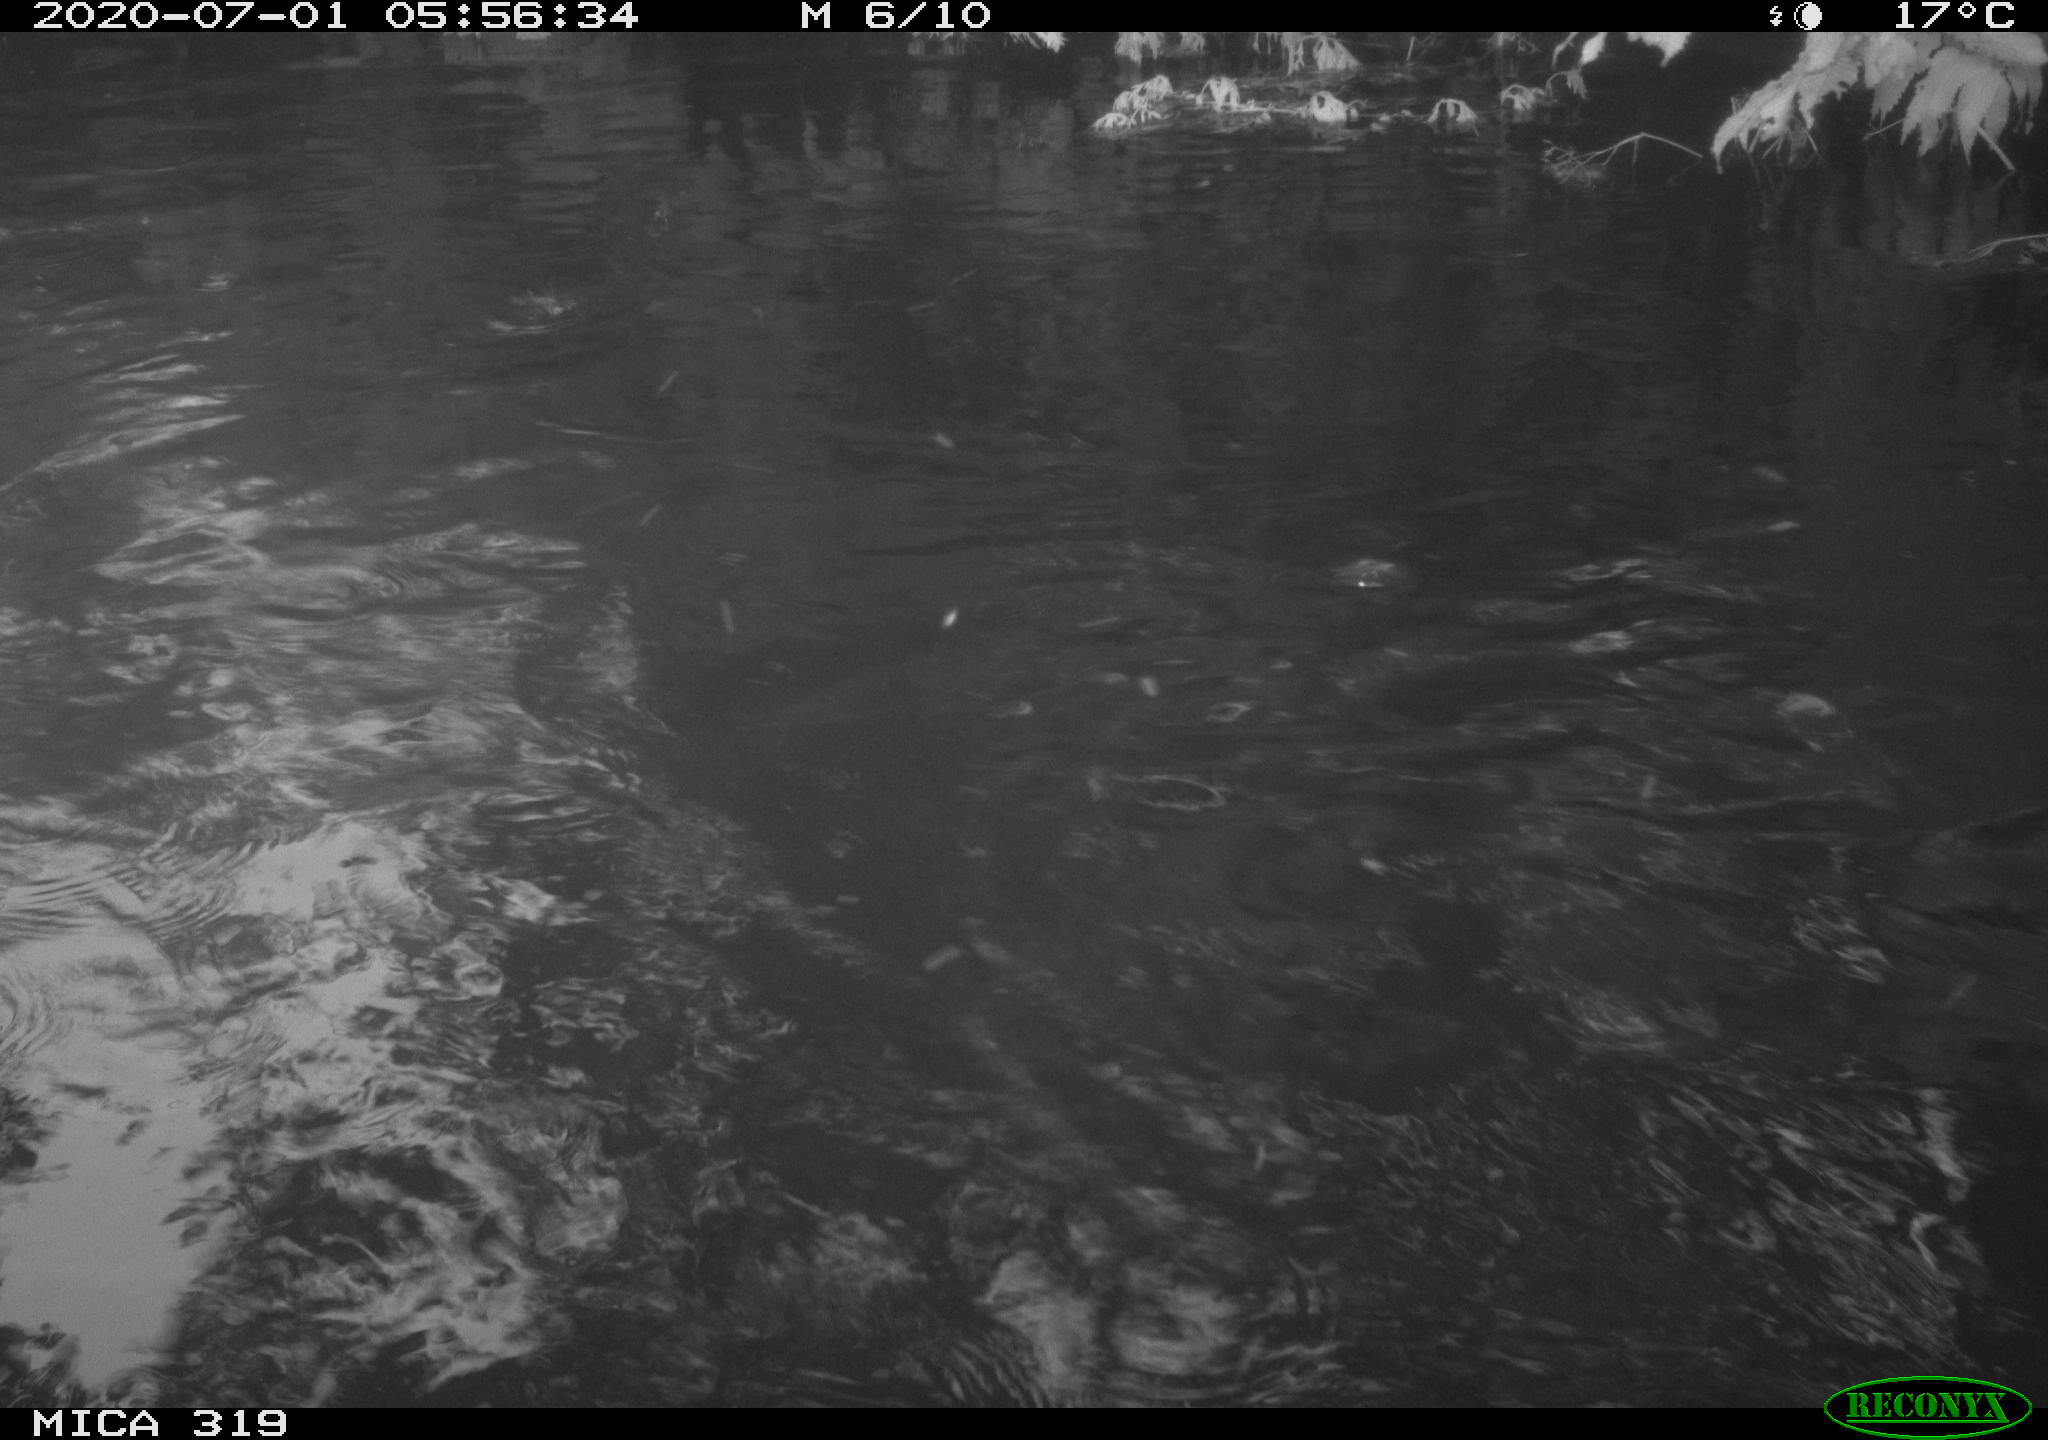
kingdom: Animalia
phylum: Chordata
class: Aves
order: Anseriformes
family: Anatidae
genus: Anas
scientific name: Anas platyrhynchos
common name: Mallard
